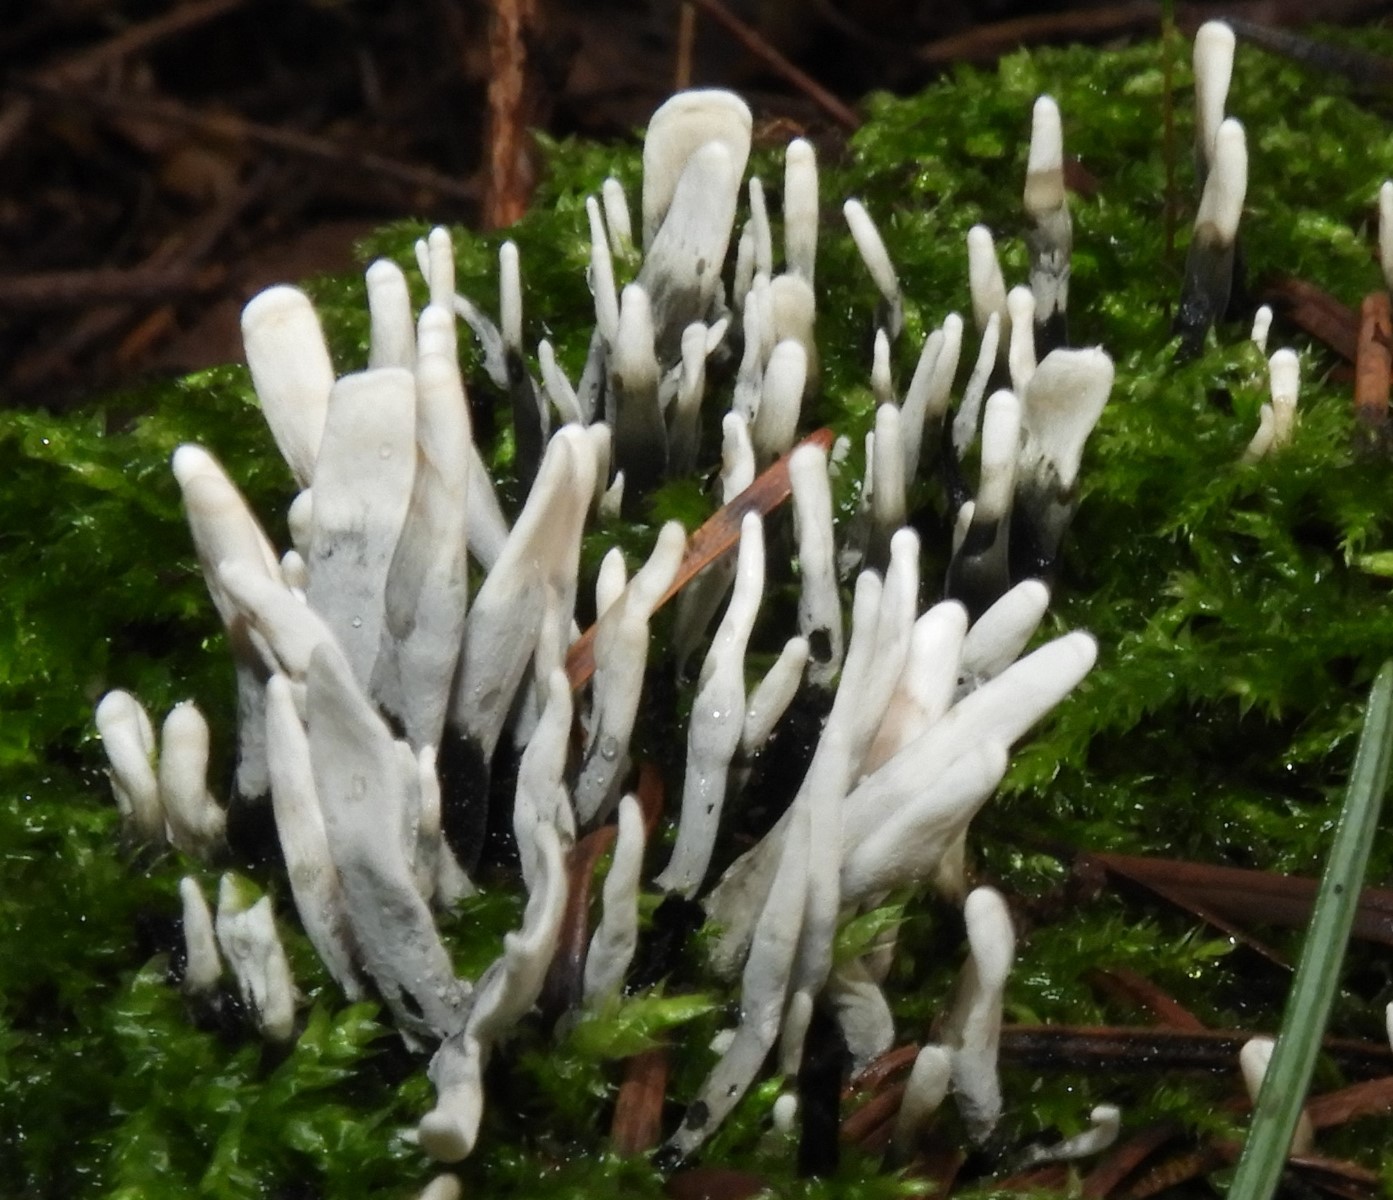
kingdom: Fungi
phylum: Ascomycota
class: Sordariomycetes
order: Xylariales
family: Xylariaceae
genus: Xylaria
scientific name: Xylaria hypoxylon
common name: grenet stødsvamp
